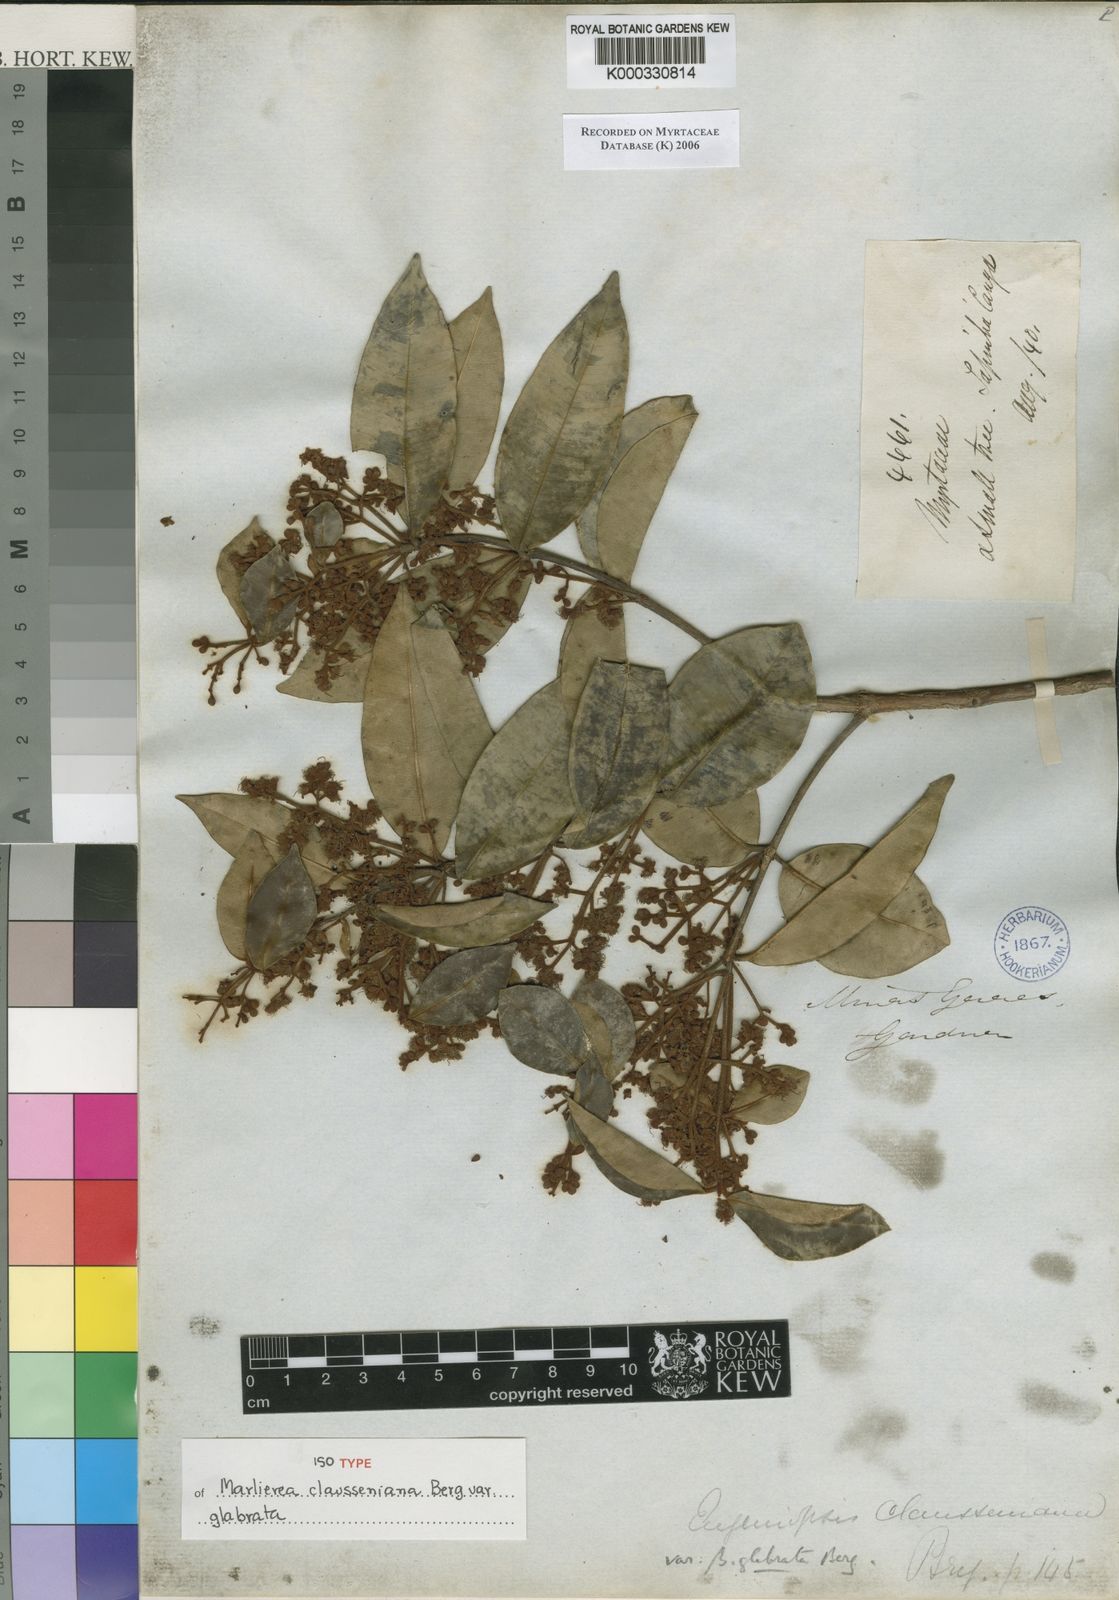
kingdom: Plantae
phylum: Tracheophyta
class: Magnoliopsida
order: Myrtales
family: Myrtaceae
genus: Marlierea
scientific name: Marlierea clausseniana
